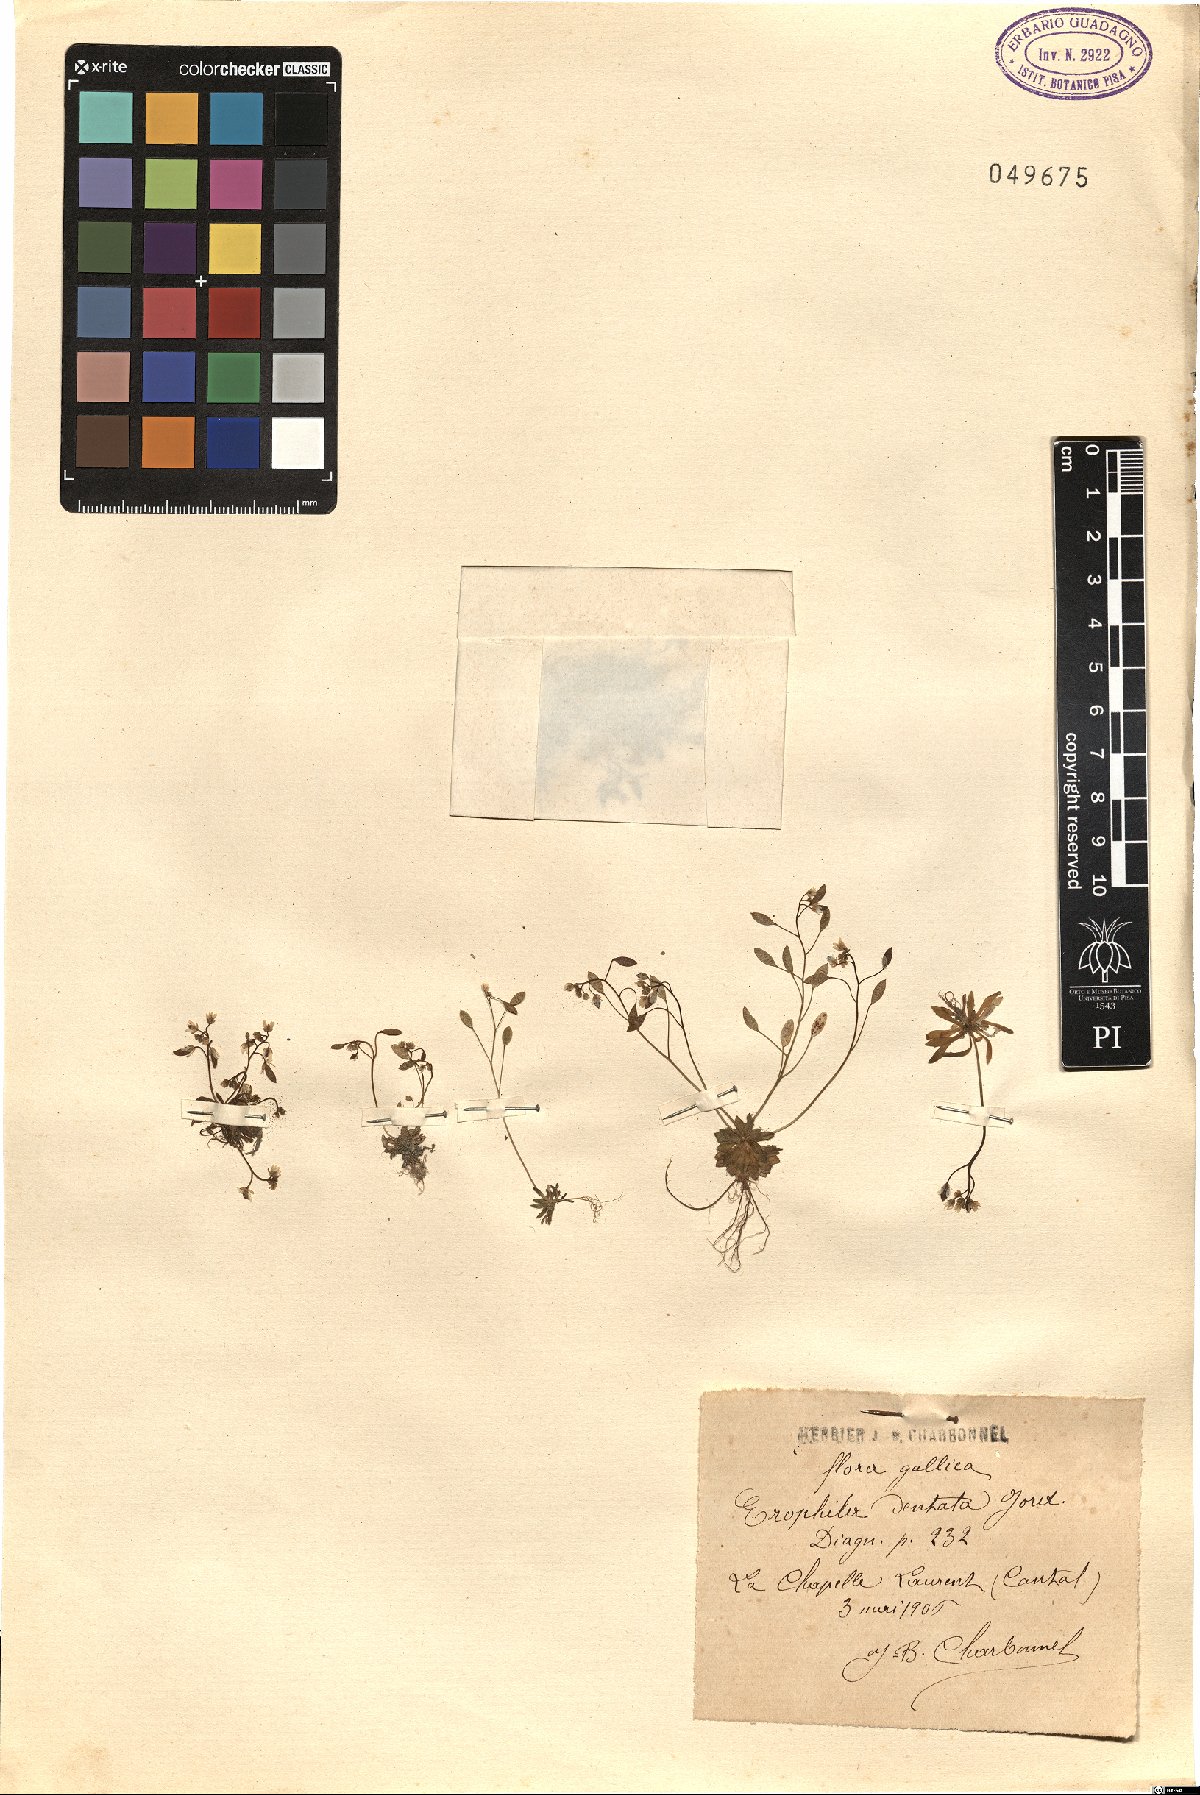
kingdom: Plantae
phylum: Tracheophyta
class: Magnoliopsida
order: Brassicales
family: Brassicaceae
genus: Draba
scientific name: Draba verna
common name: Spring draba
